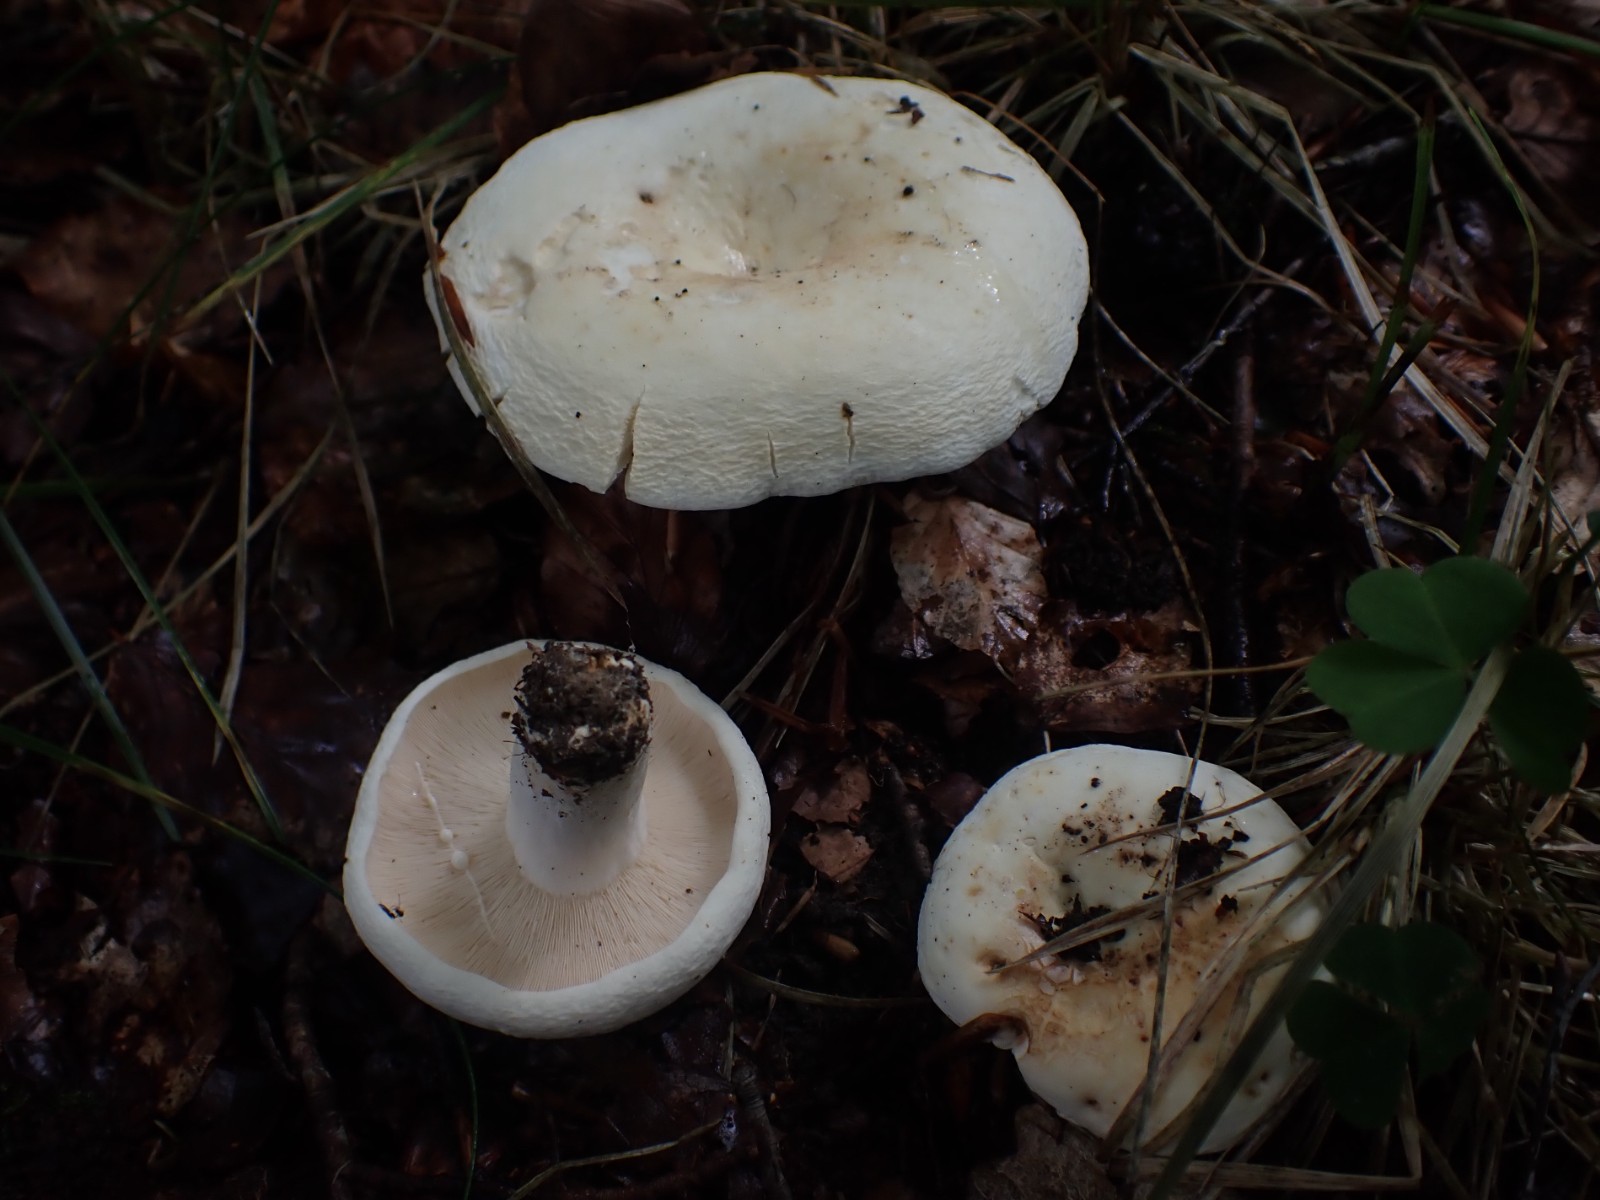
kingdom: Fungi
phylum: Basidiomycota
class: Agaricomycetes
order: Russulales
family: Russulaceae
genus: Lactifluus
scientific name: Lactifluus
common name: mælkehat
